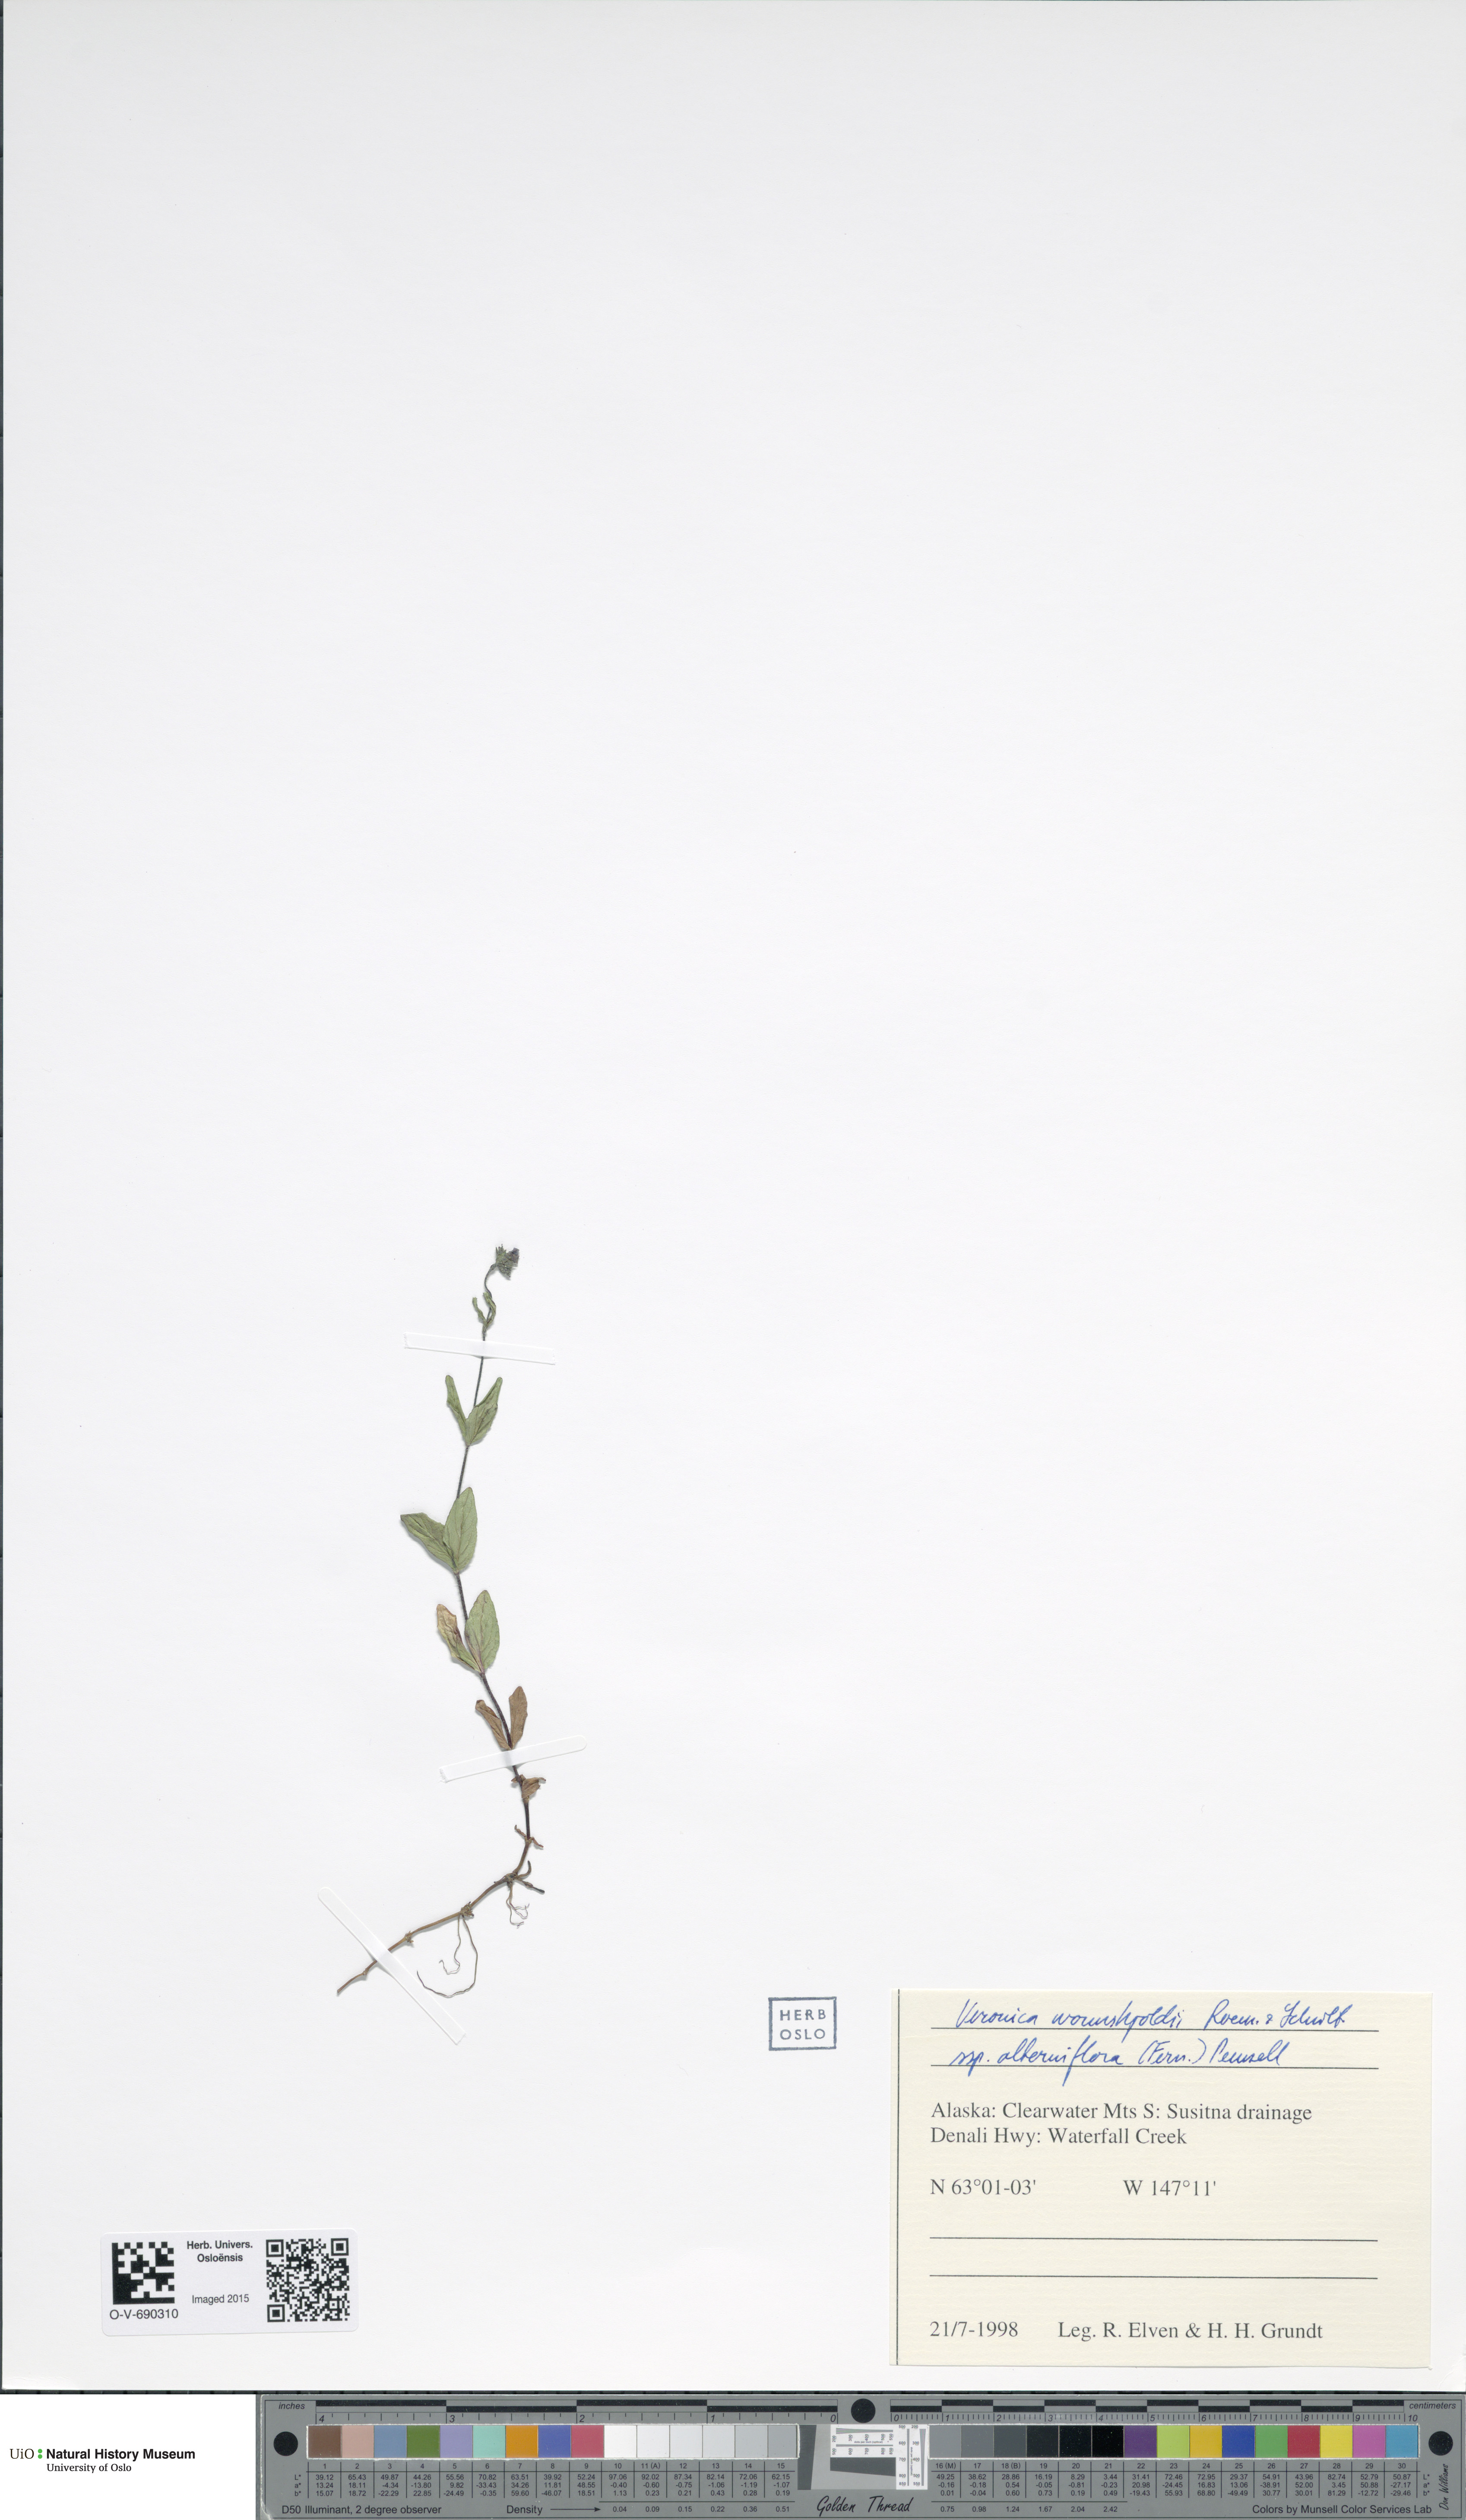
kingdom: Plantae
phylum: Tracheophyta
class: Magnoliopsida
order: Lamiales
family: Plantaginaceae
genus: Veronica
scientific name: Veronica wormskjoldii
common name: American alpine speedwell
